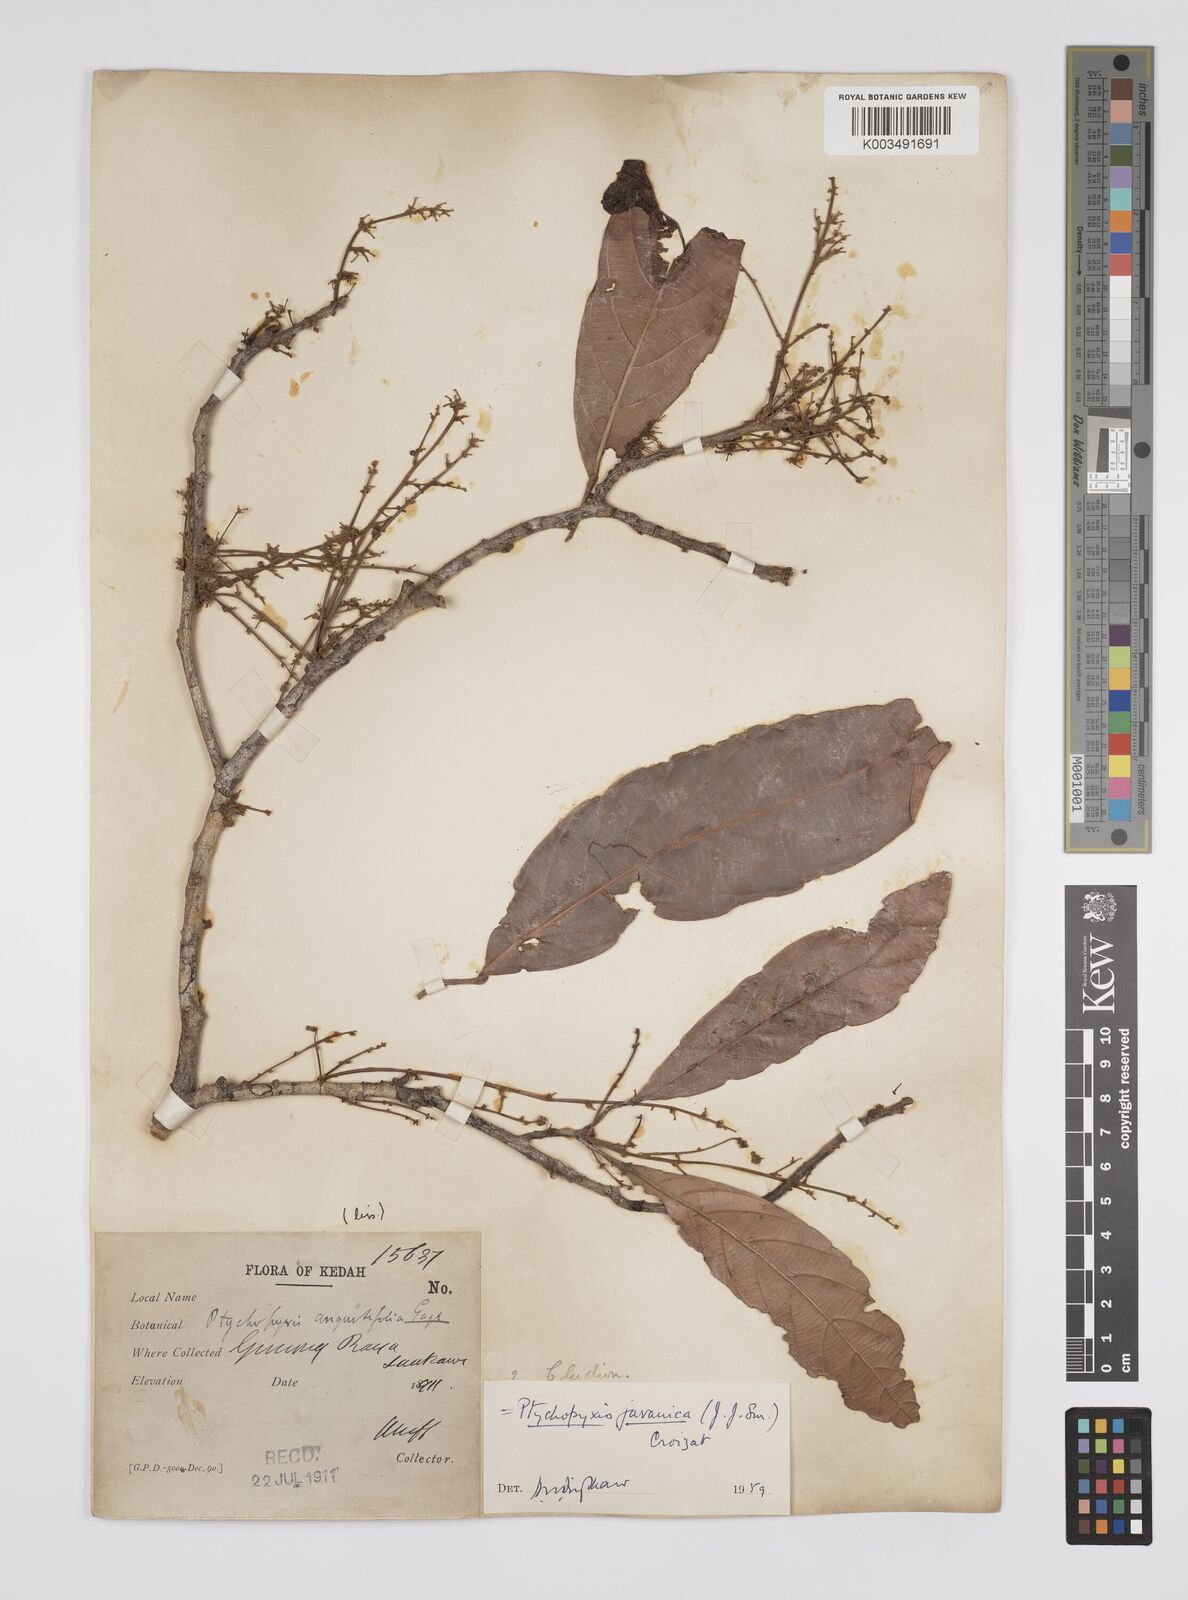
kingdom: Plantae
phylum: Tracheophyta
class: Magnoliopsida
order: Malpighiales
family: Euphorbiaceae
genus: Ptychopyxis
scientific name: Ptychopyxis javanica
